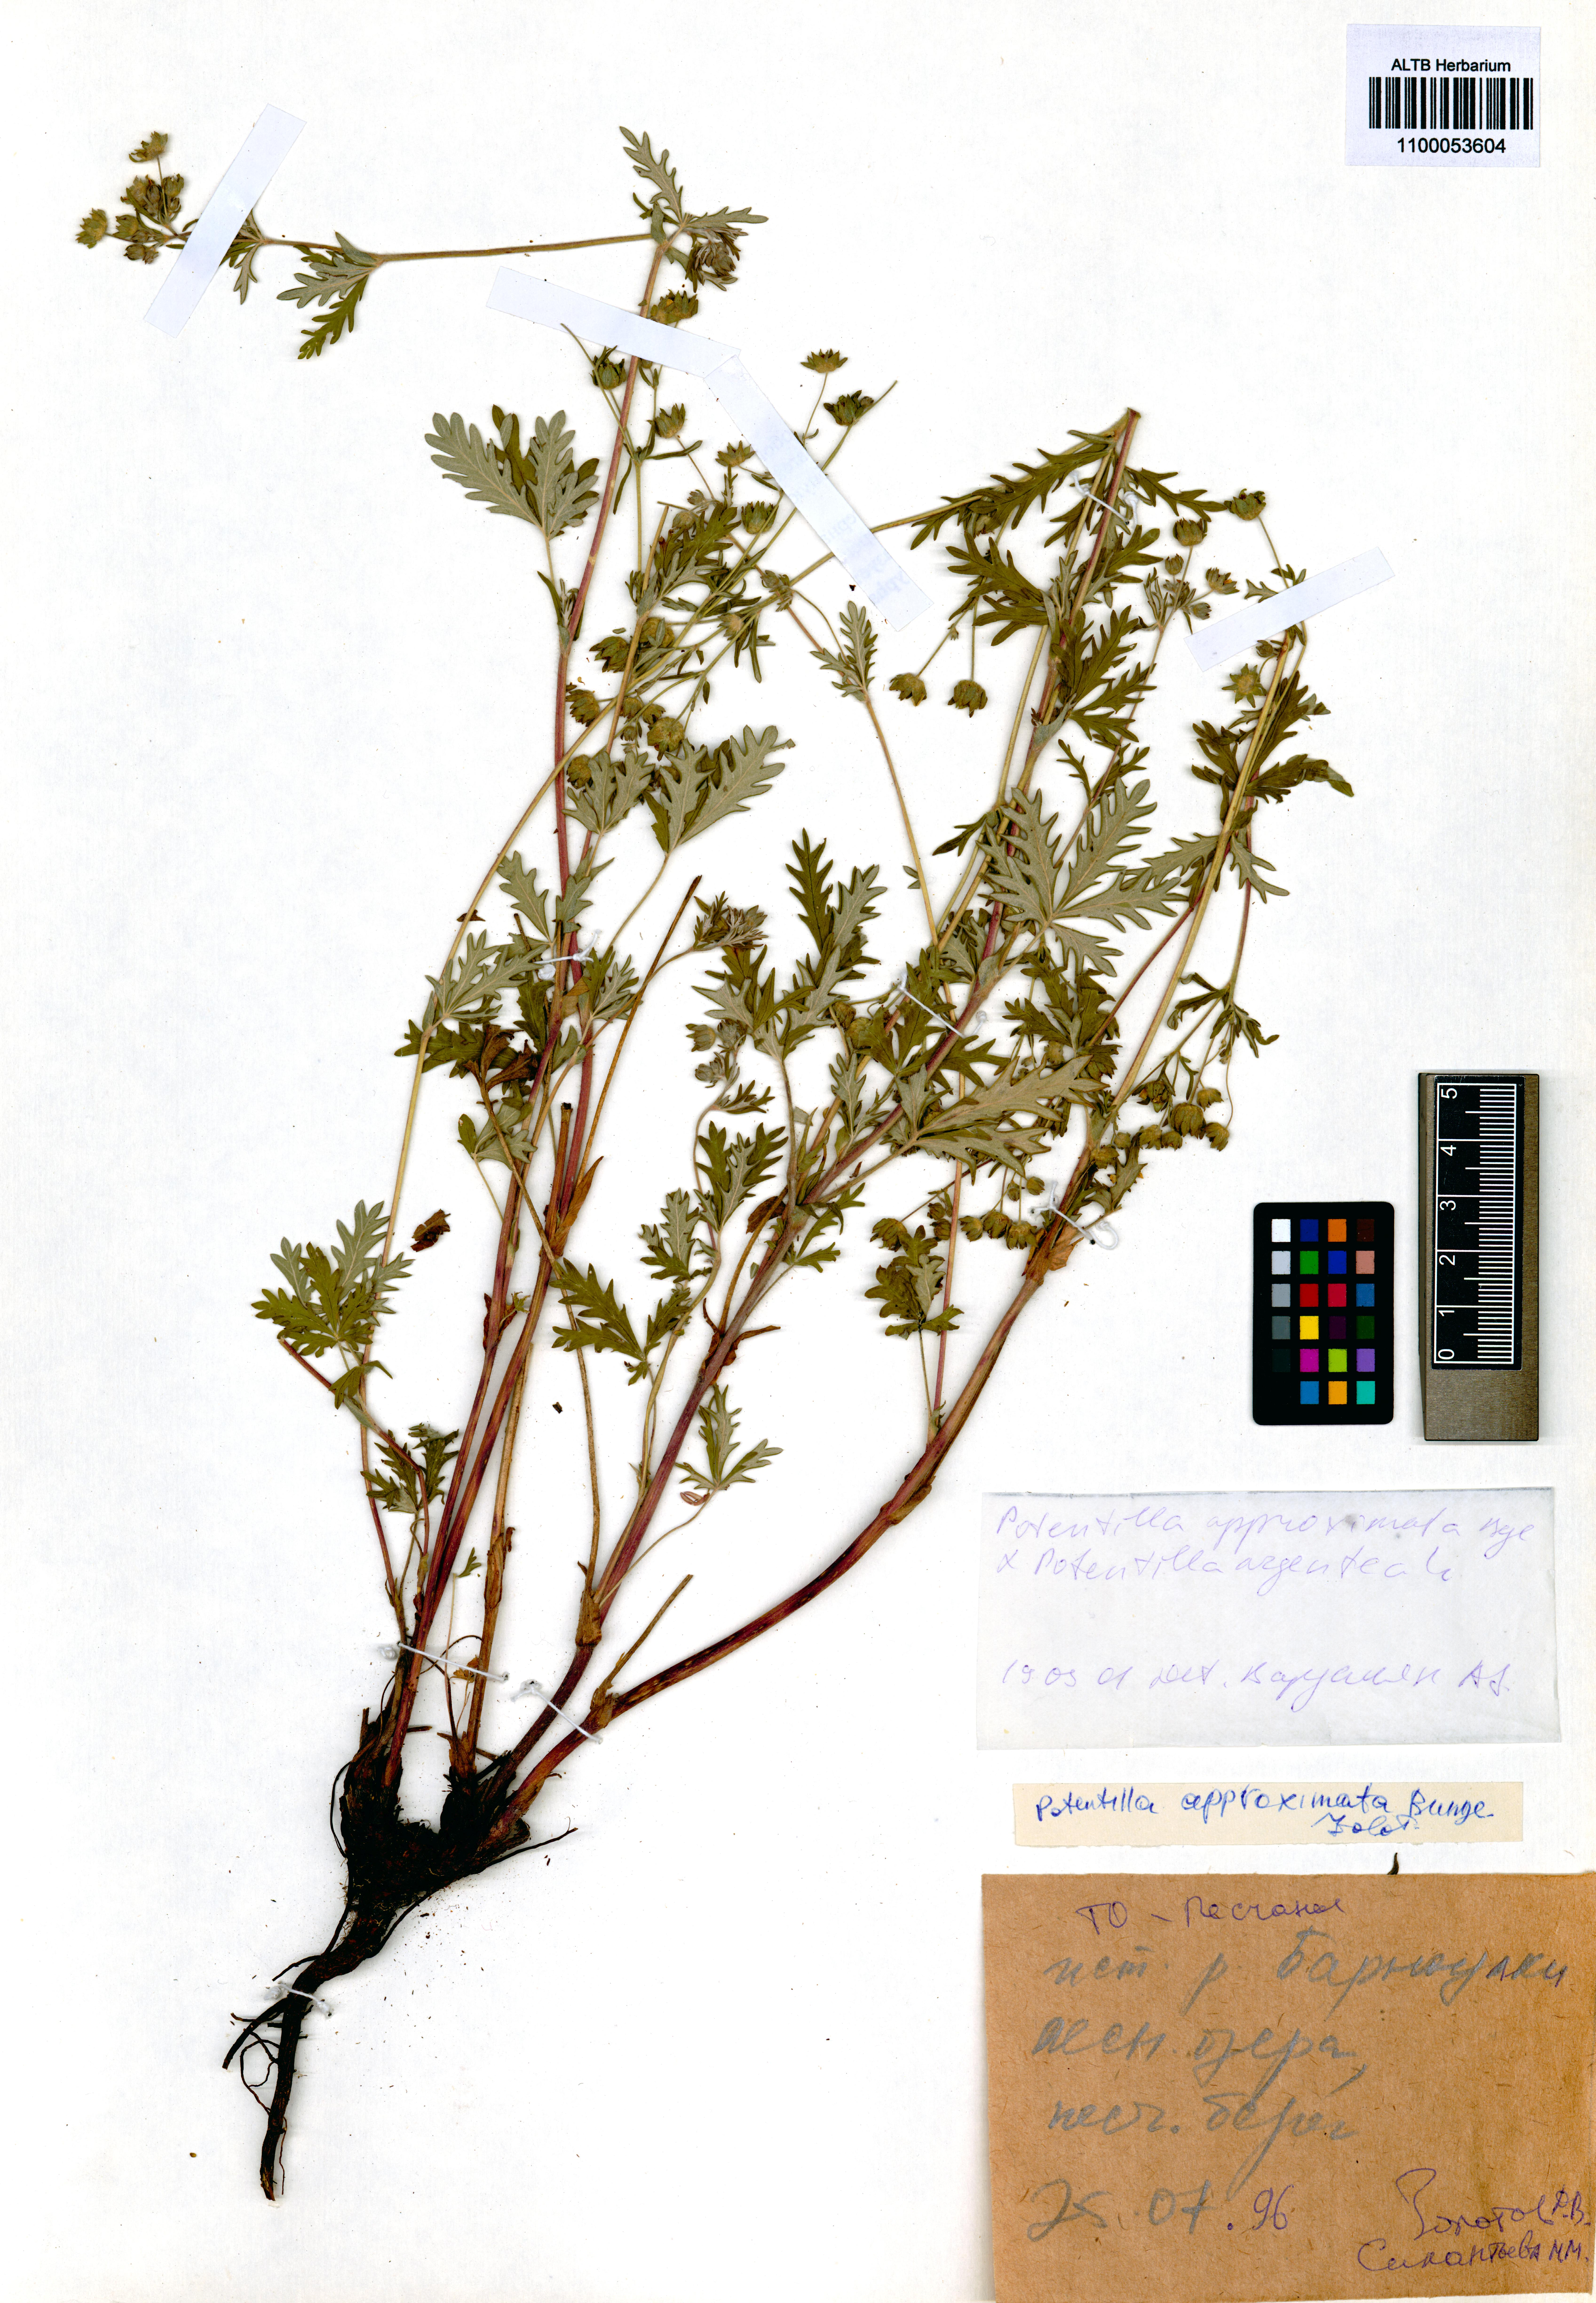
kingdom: Plantae
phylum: Tracheophyta
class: Magnoliopsida
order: Rosales
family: Rosaceae
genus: Potentilla
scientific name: Potentilla conferta
